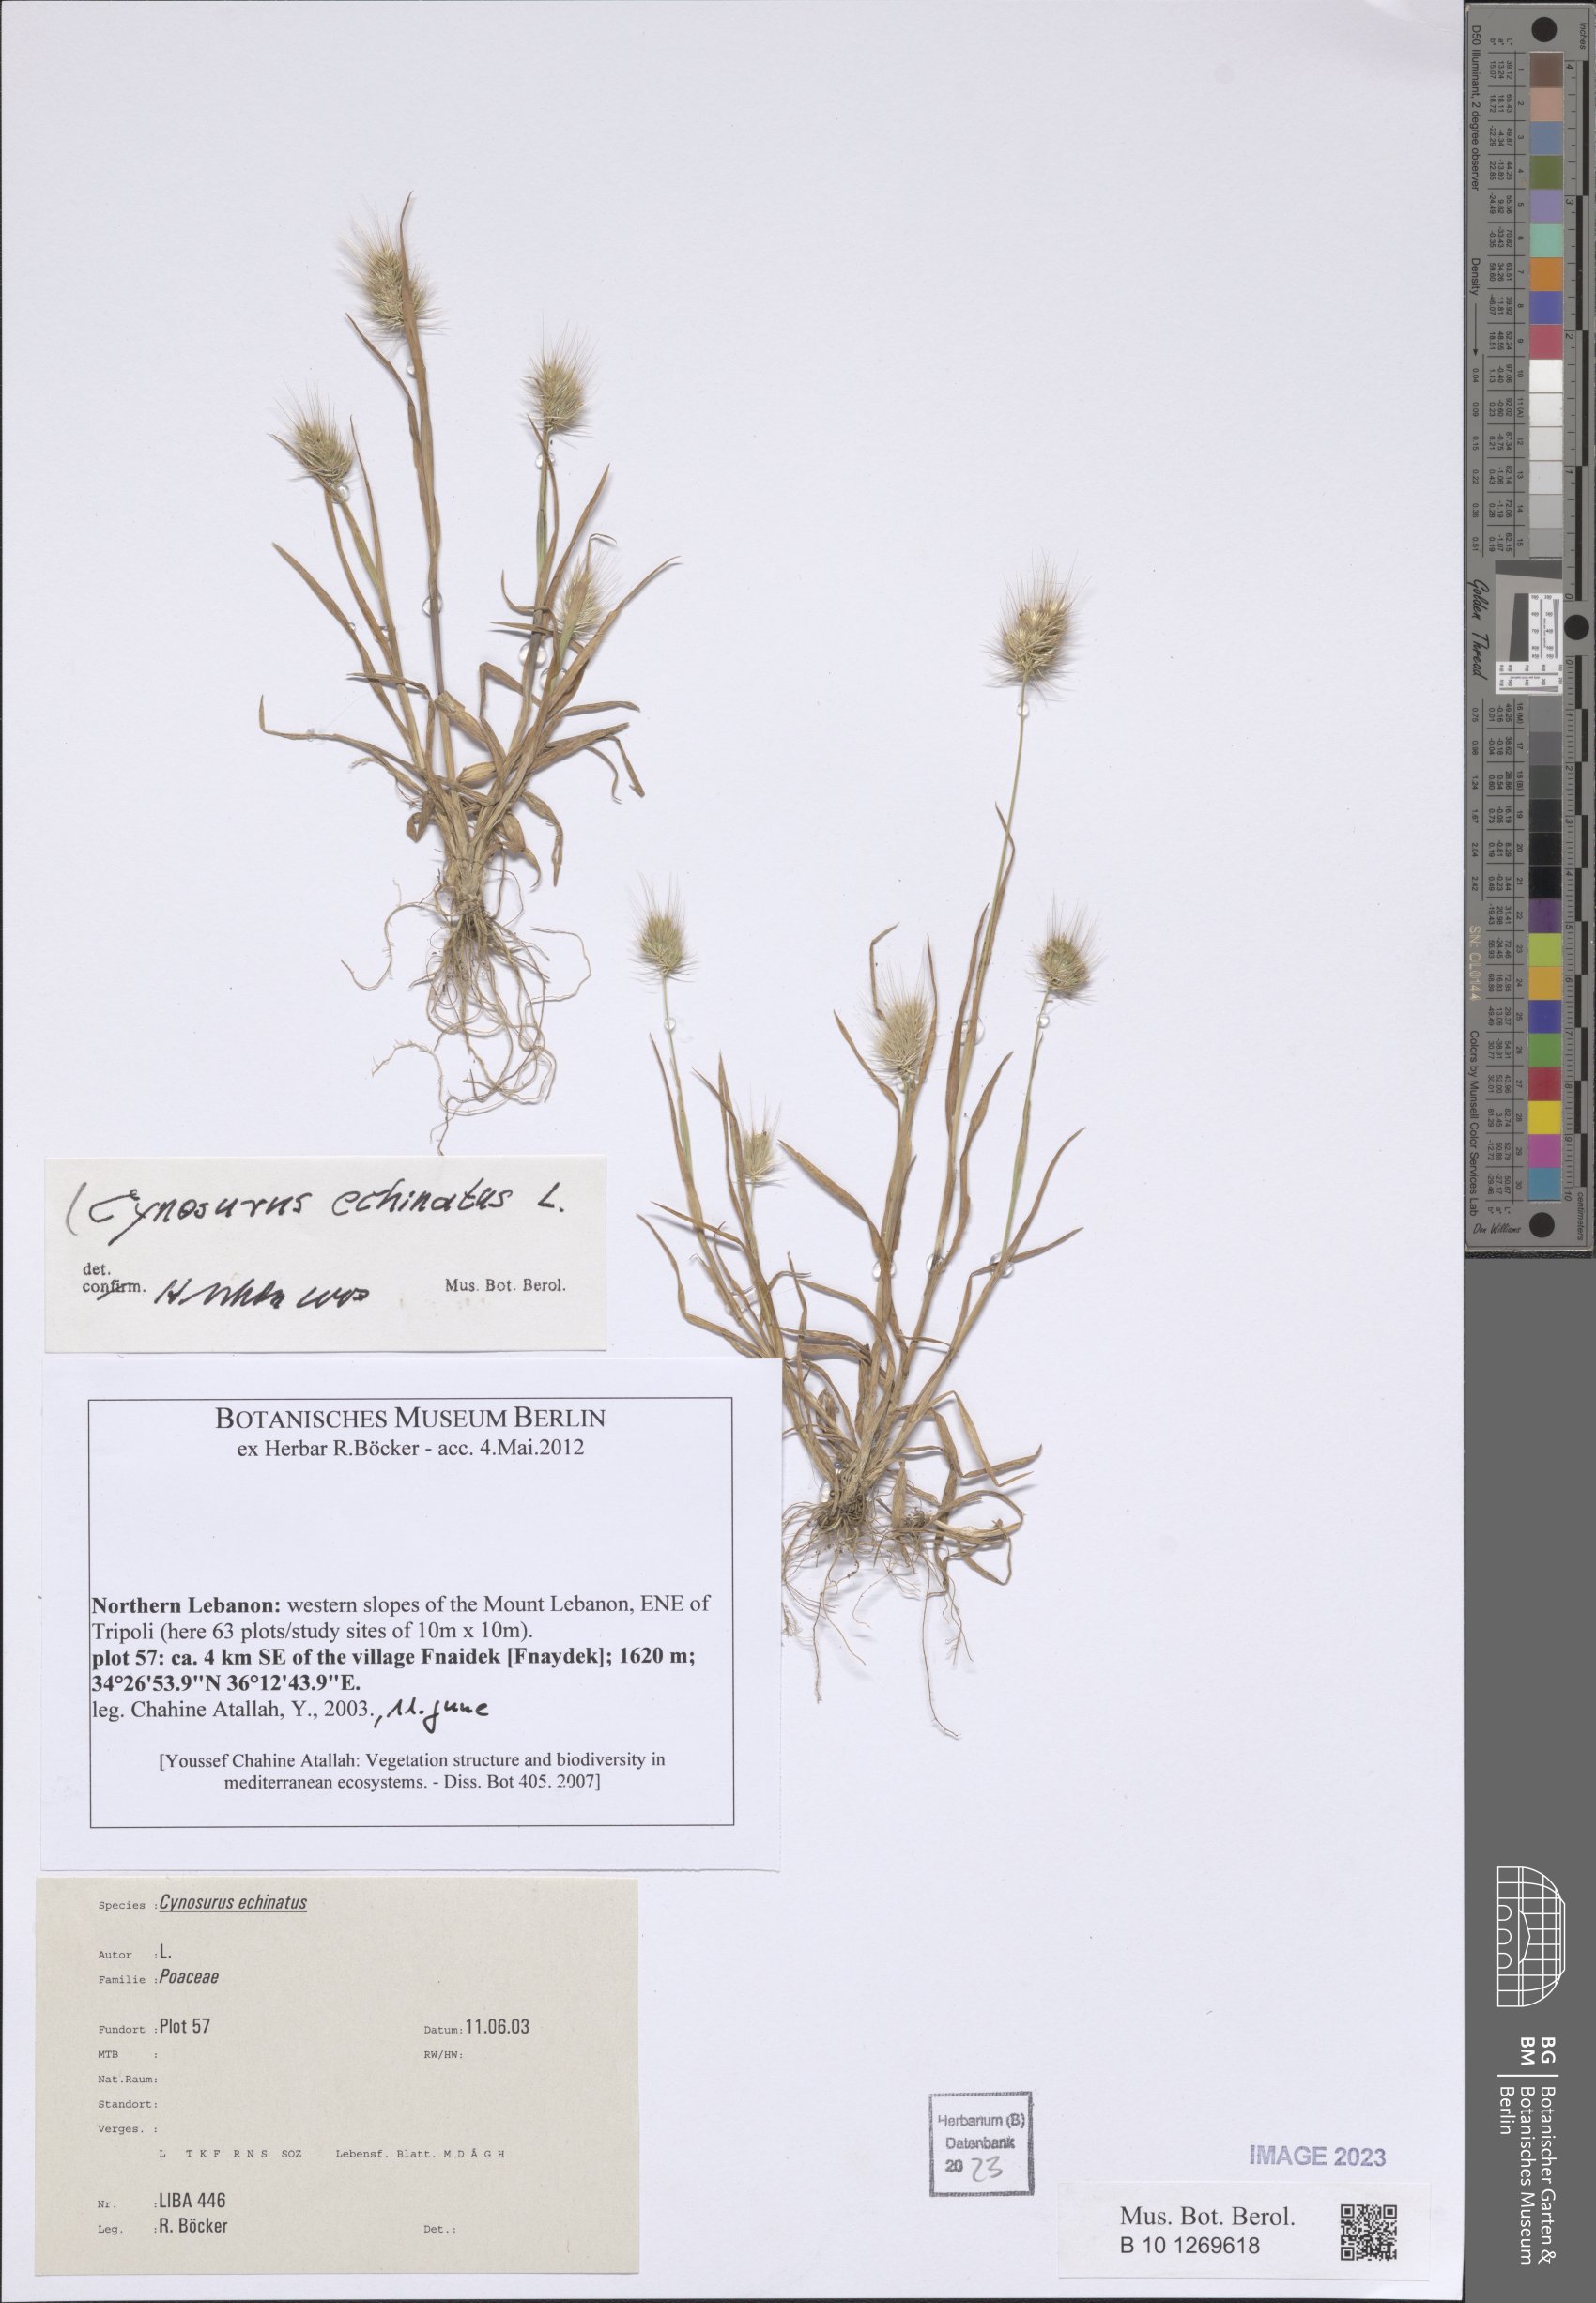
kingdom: Plantae
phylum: Tracheophyta
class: Liliopsida
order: Poales
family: Poaceae
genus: Cynosurus
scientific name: Cynosurus echinatus
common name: Rough dog's-tail
